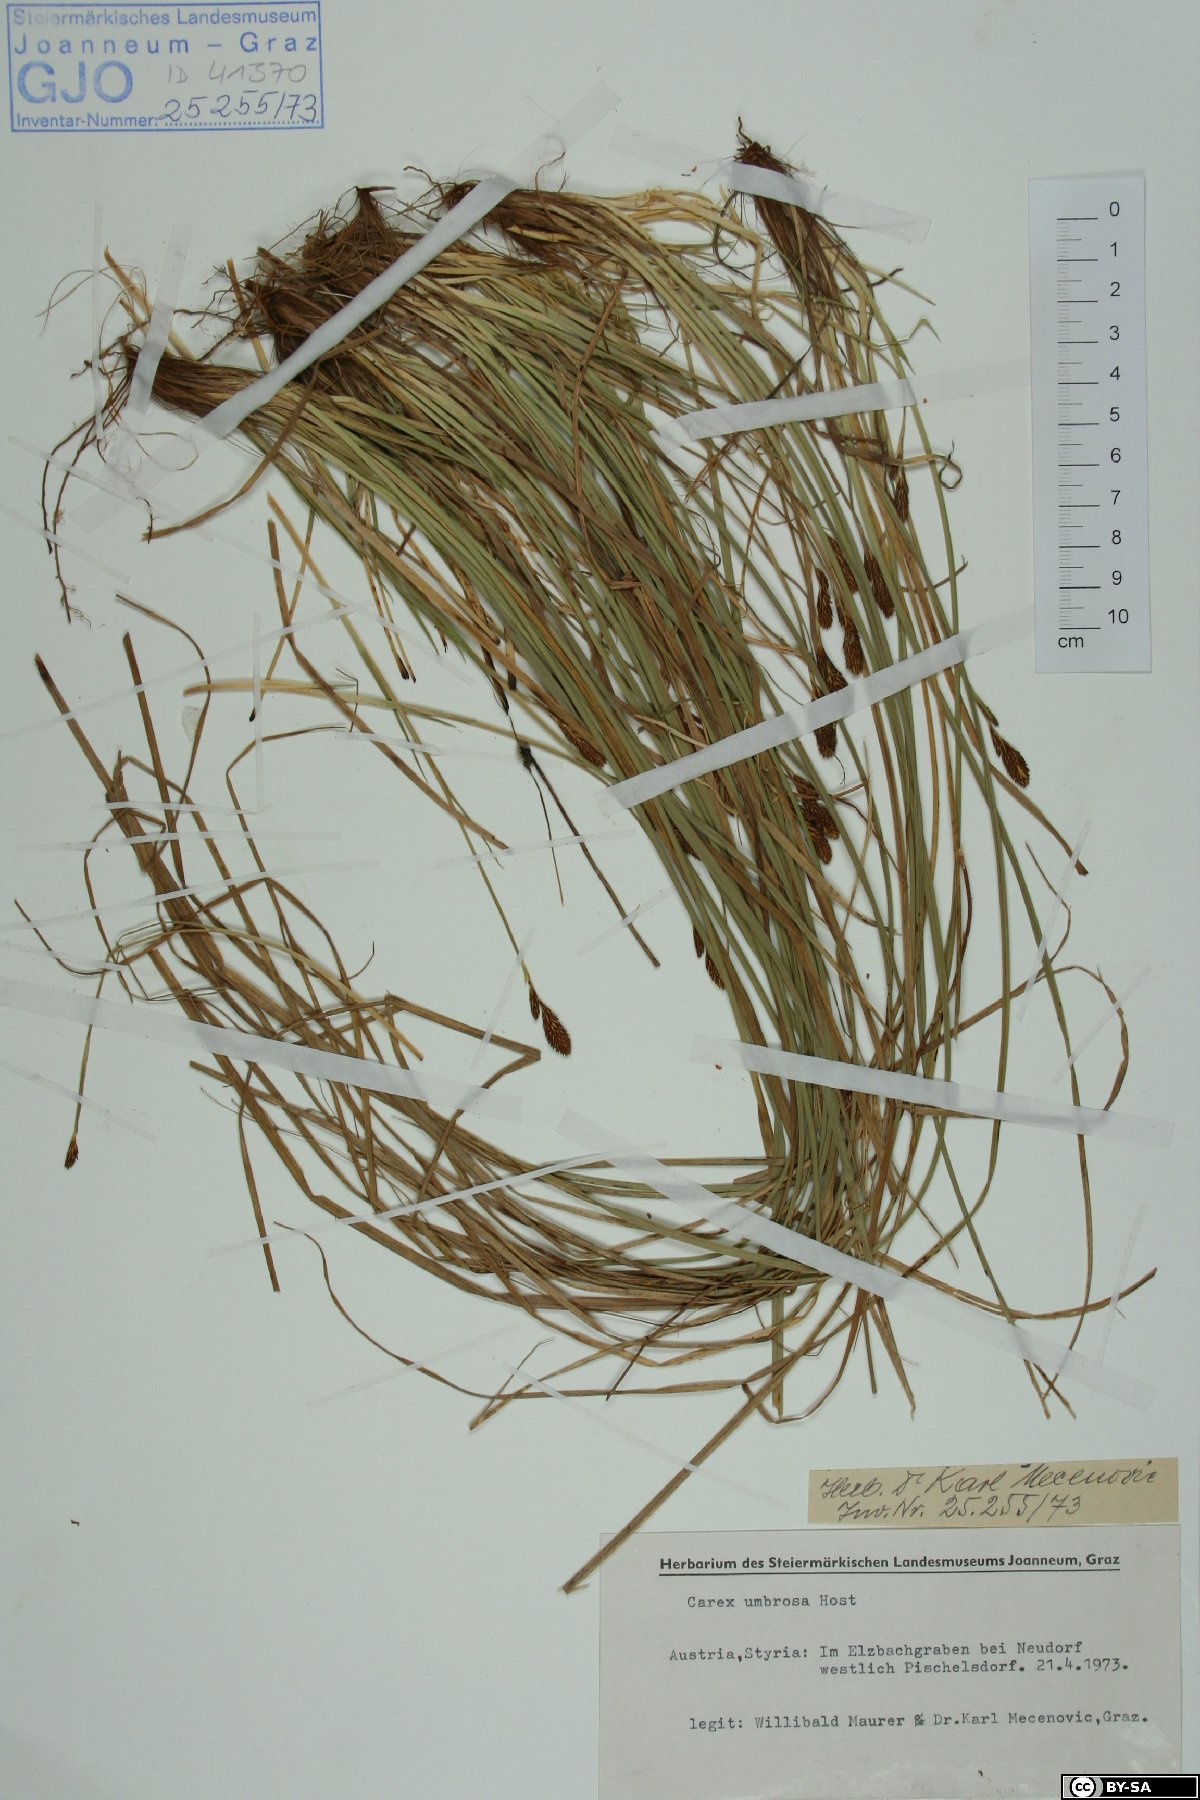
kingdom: Plantae
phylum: Tracheophyta
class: Liliopsida
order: Poales
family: Cyperaceae
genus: Carex
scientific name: Carex umbrosa
